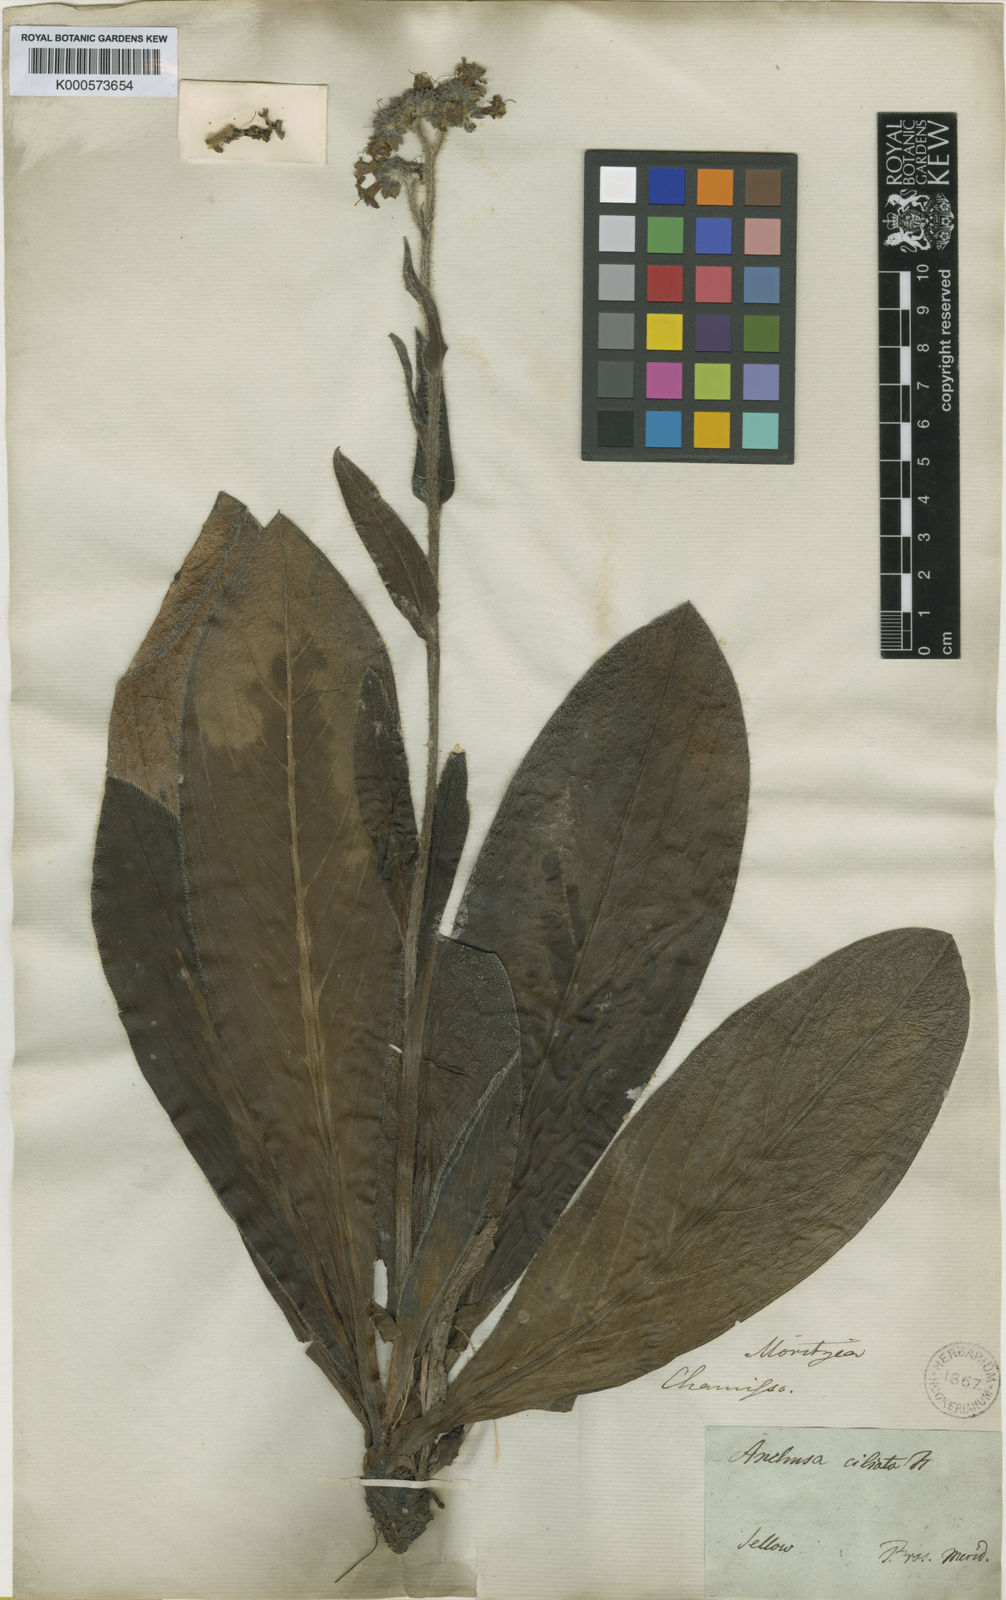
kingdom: Plantae
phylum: Tracheophyta
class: Magnoliopsida
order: Boraginales
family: Boraginaceae
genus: Moritzia
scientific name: Moritzia ciliata
